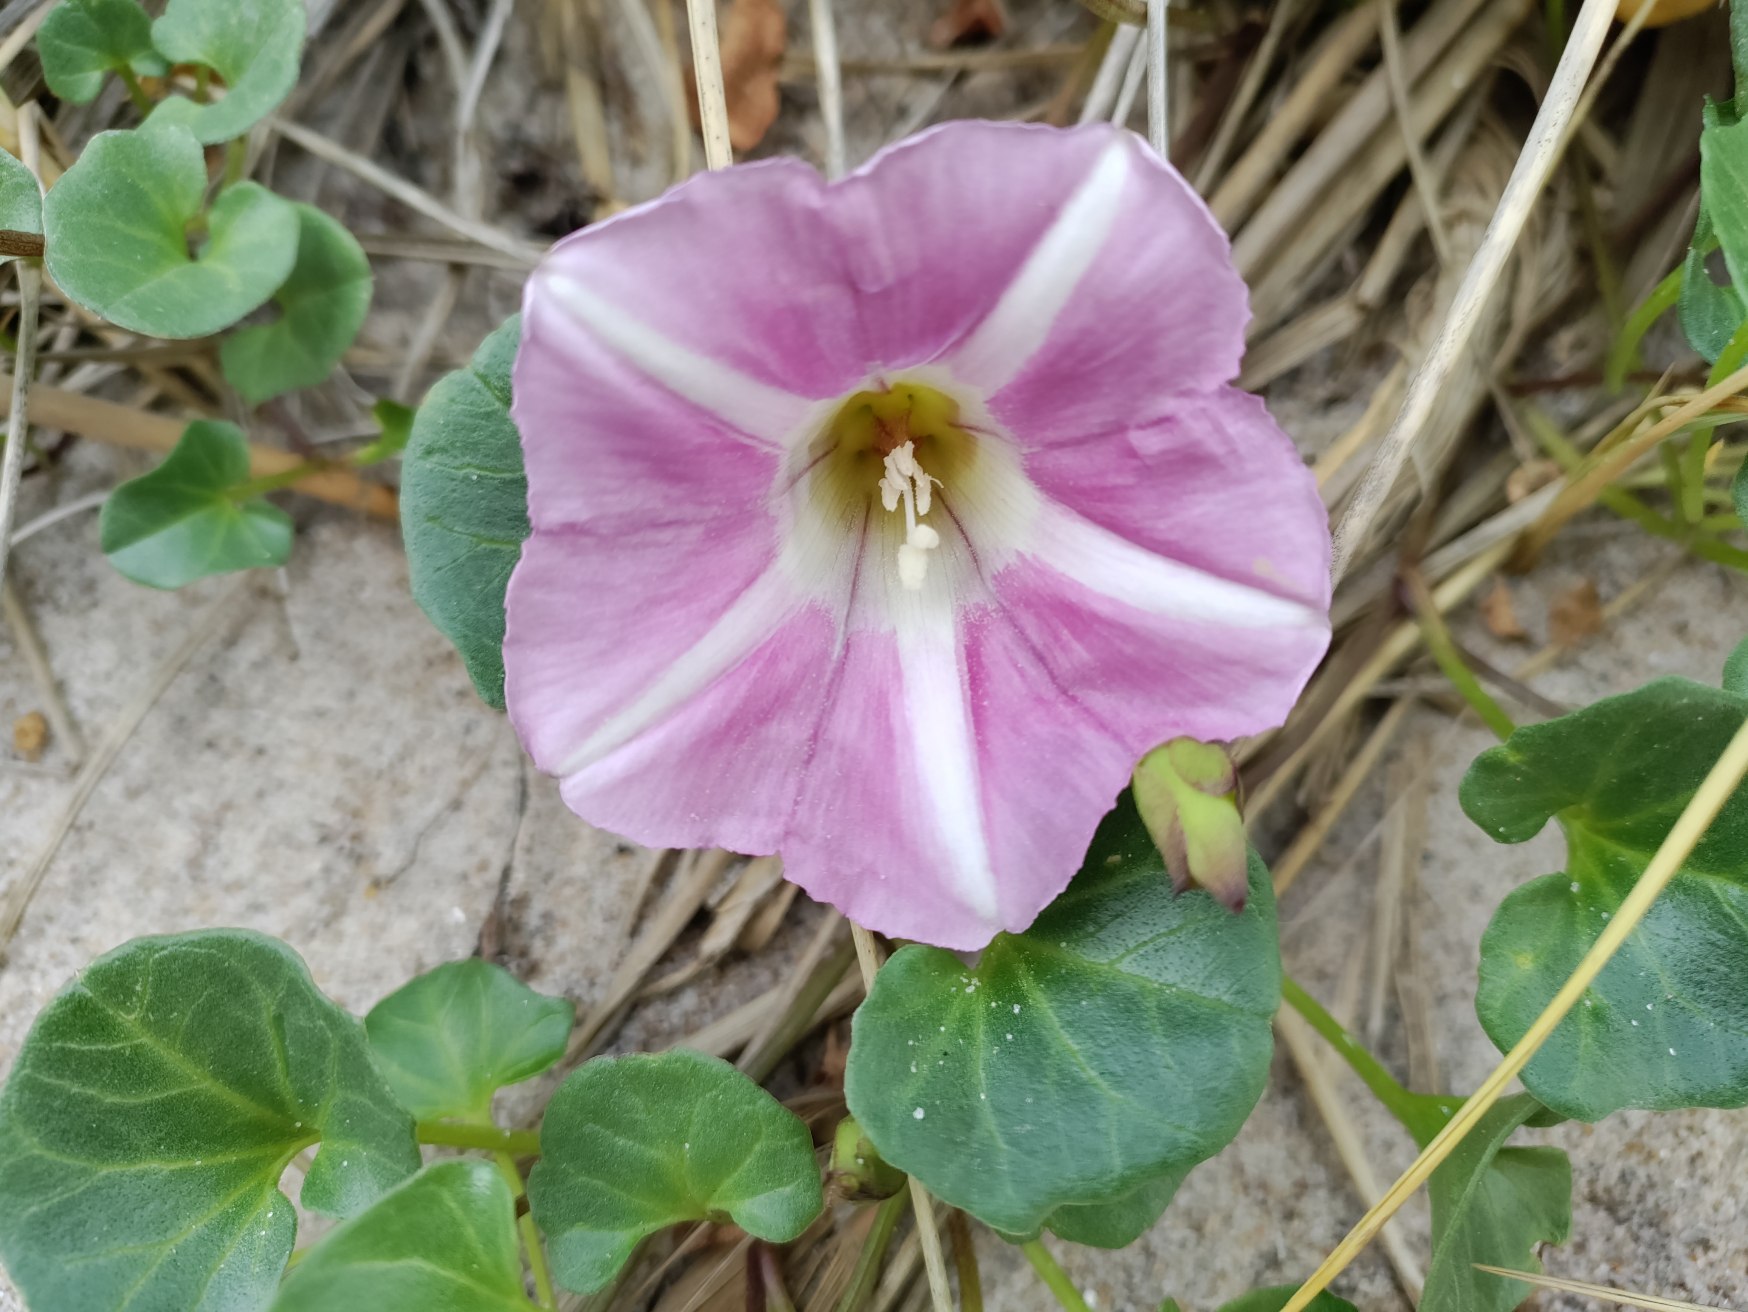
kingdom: Plantae
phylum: Tracheophyta
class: Magnoliopsida
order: Solanales
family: Convolvulaceae
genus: Calystegia
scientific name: Calystegia soldanella
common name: Strand-snerle
